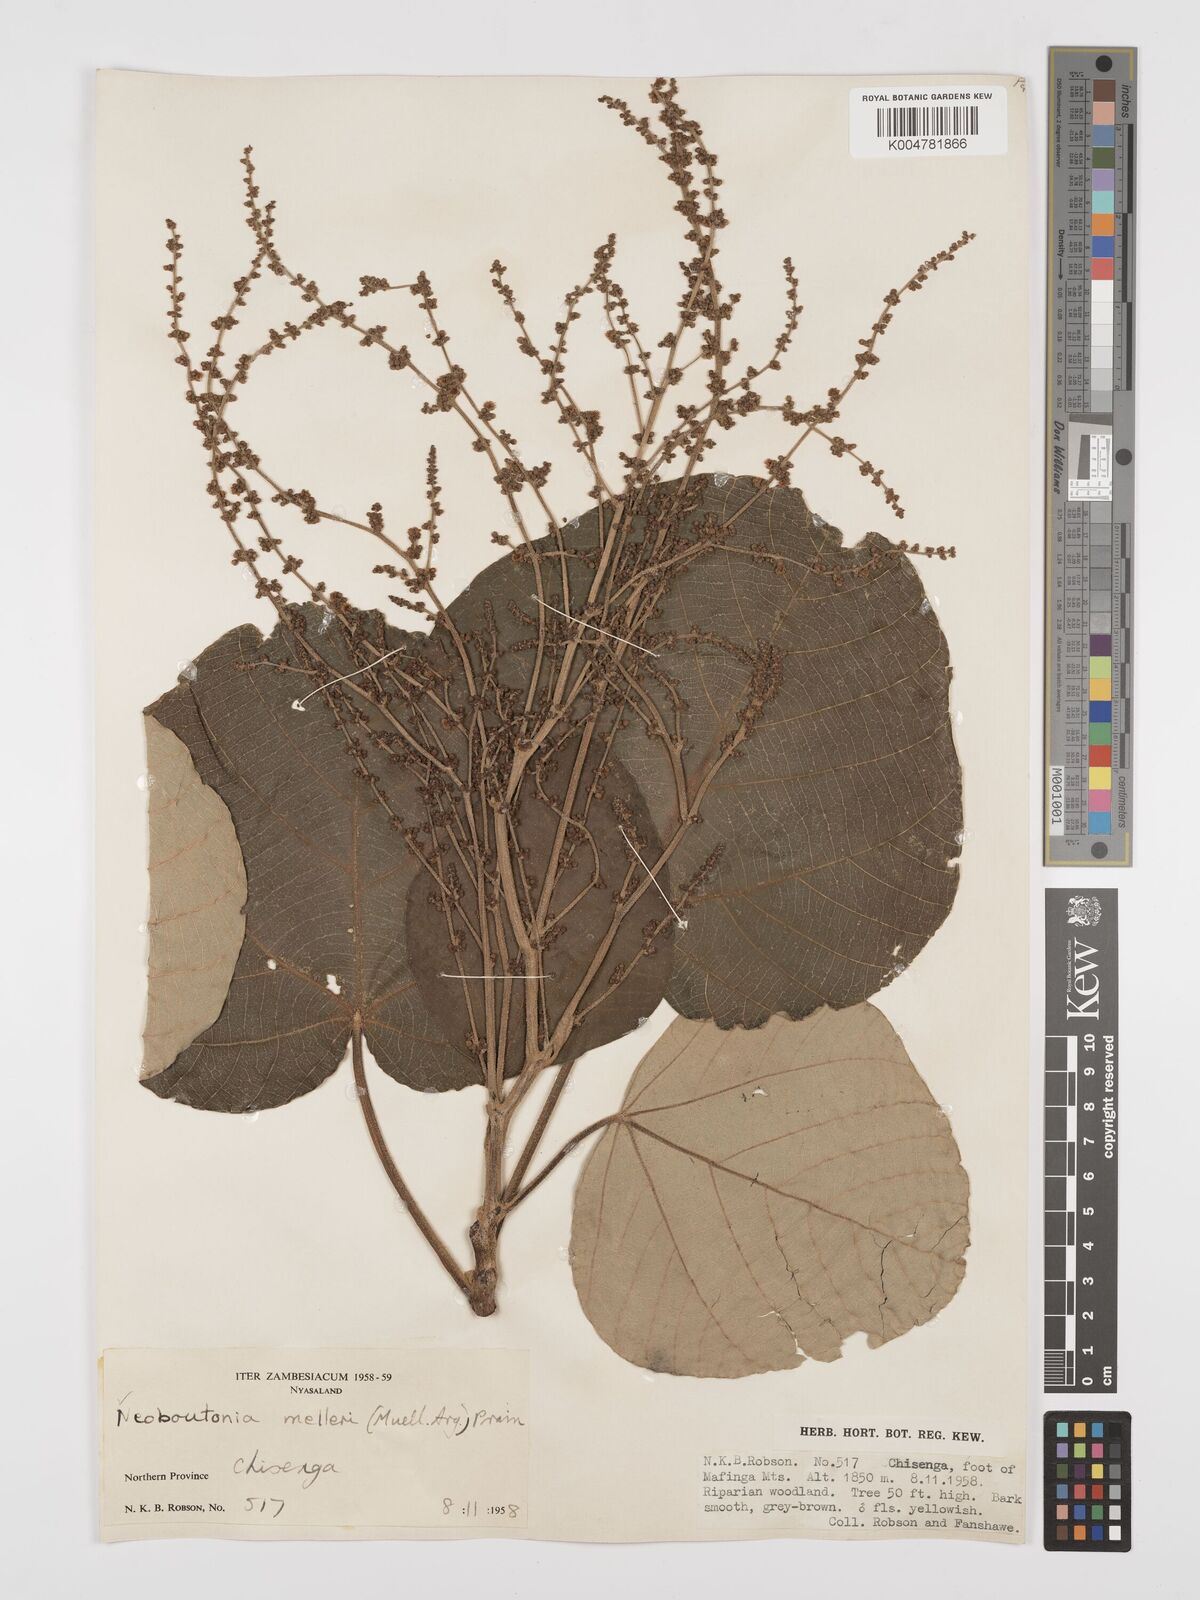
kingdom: Plantae
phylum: Tracheophyta
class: Magnoliopsida
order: Malpighiales
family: Euphorbiaceae
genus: Neoboutonia
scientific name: Neoboutonia melleri
